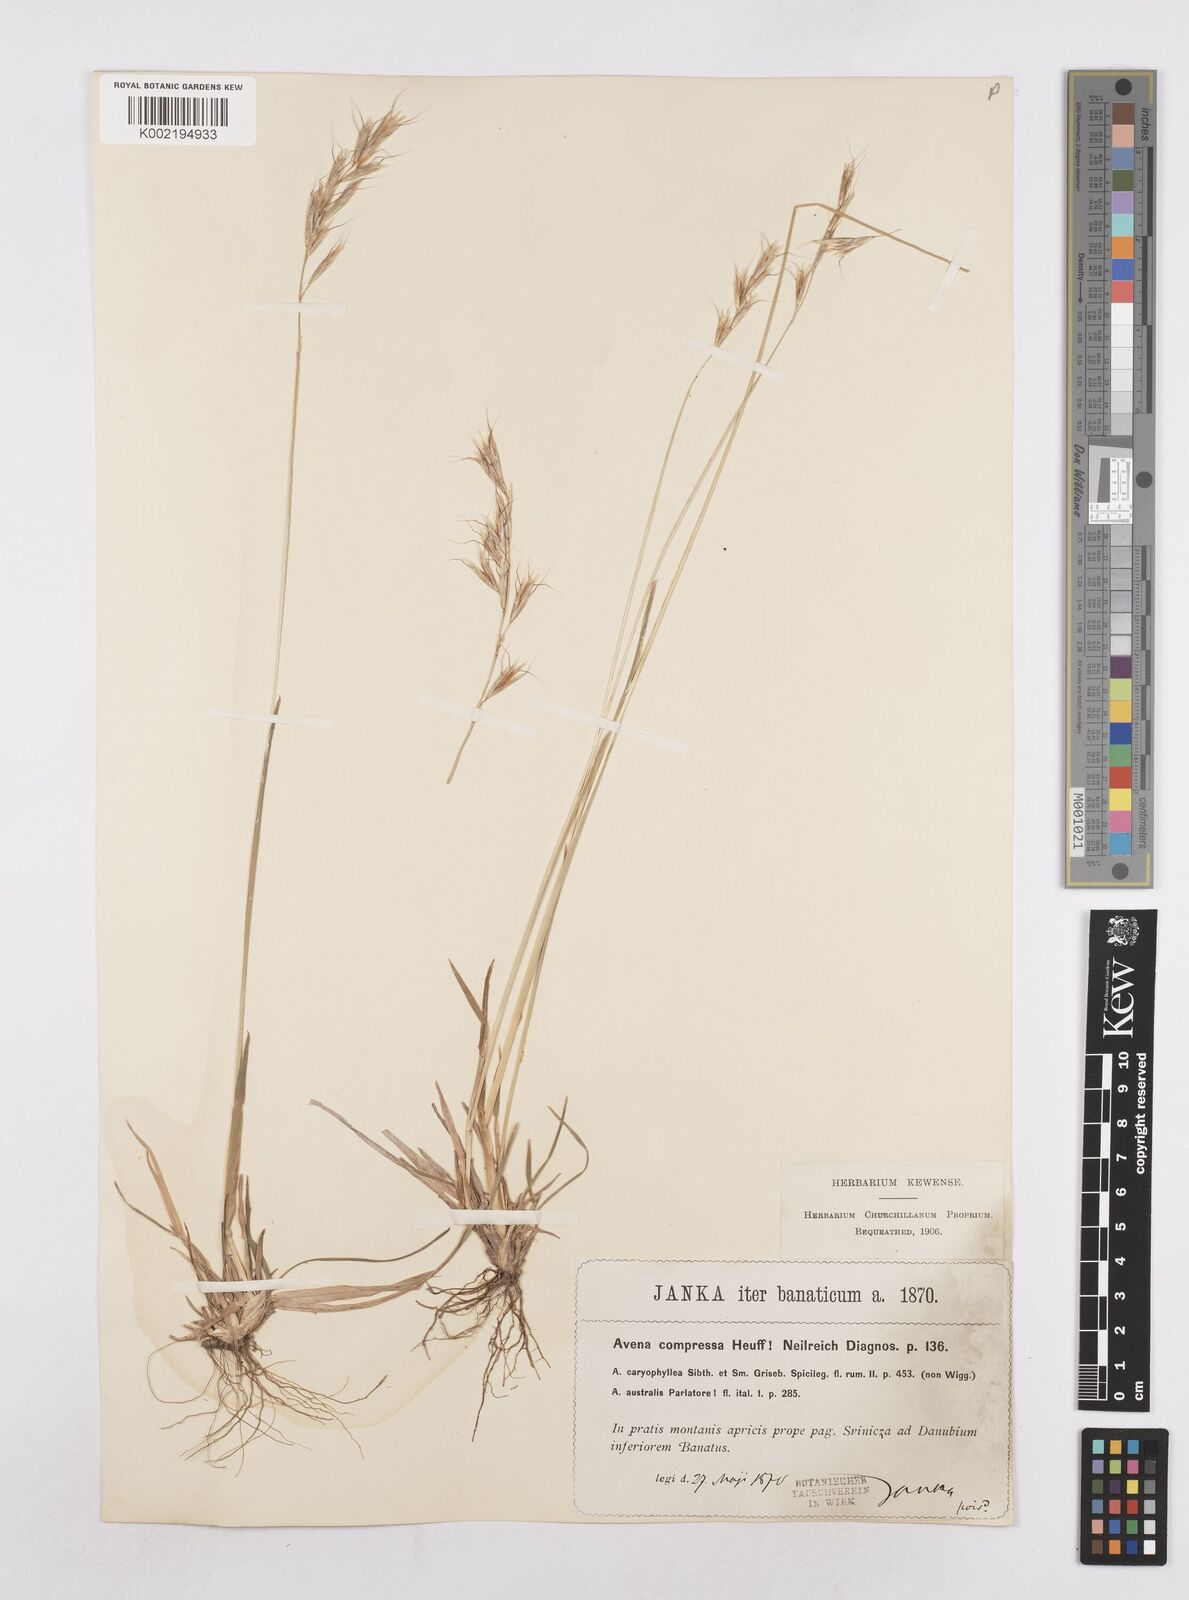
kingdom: Plantae
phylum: Tracheophyta
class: Liliopsida
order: Poales
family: Poaceae
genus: Helictochloa
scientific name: Helictochloa compressa
